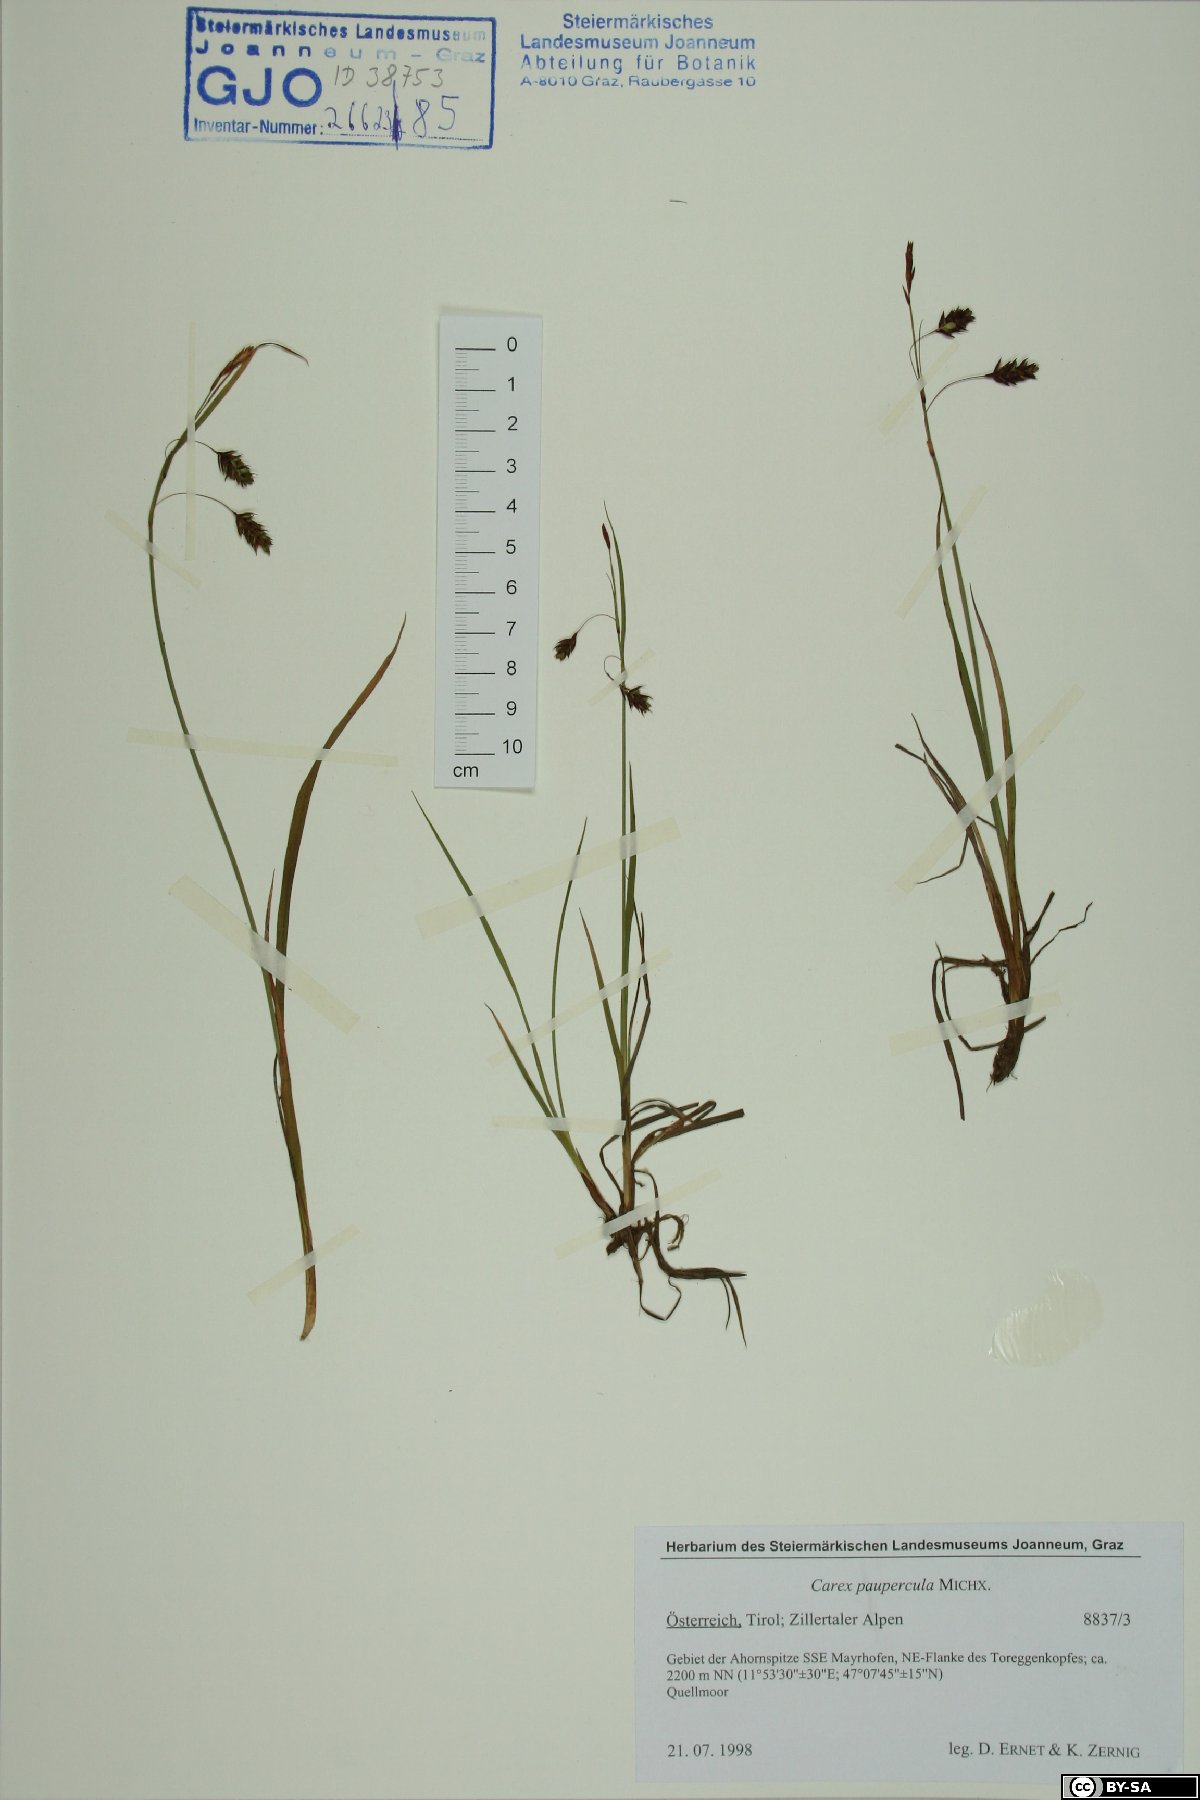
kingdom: Plantae
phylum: Tracheophyta
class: Liliopsida
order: Poales
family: Cyperaceae
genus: Carex
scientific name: Carex magellanica
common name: Bog sedge
